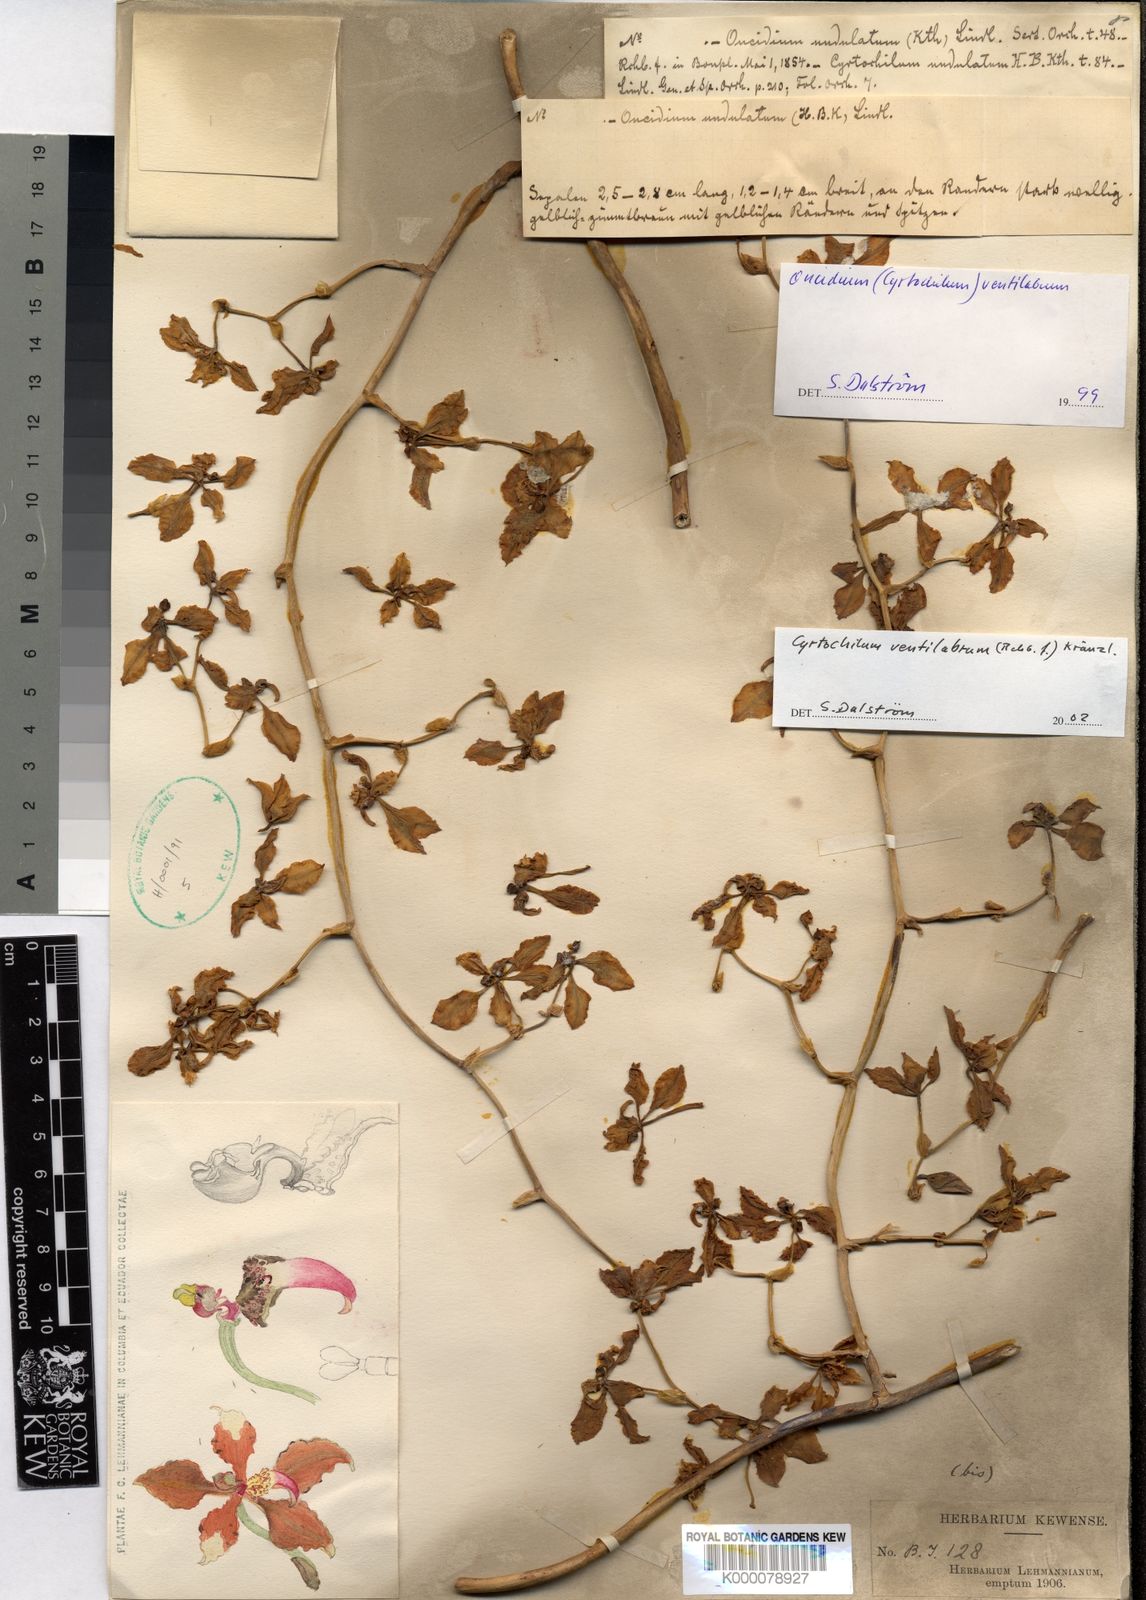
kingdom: Plantae
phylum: Tracheophyta
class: Liliopsida
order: Asparagales
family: Orchidaceae
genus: Cyrtochilum
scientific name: Cyrtochilum ventilabrum
